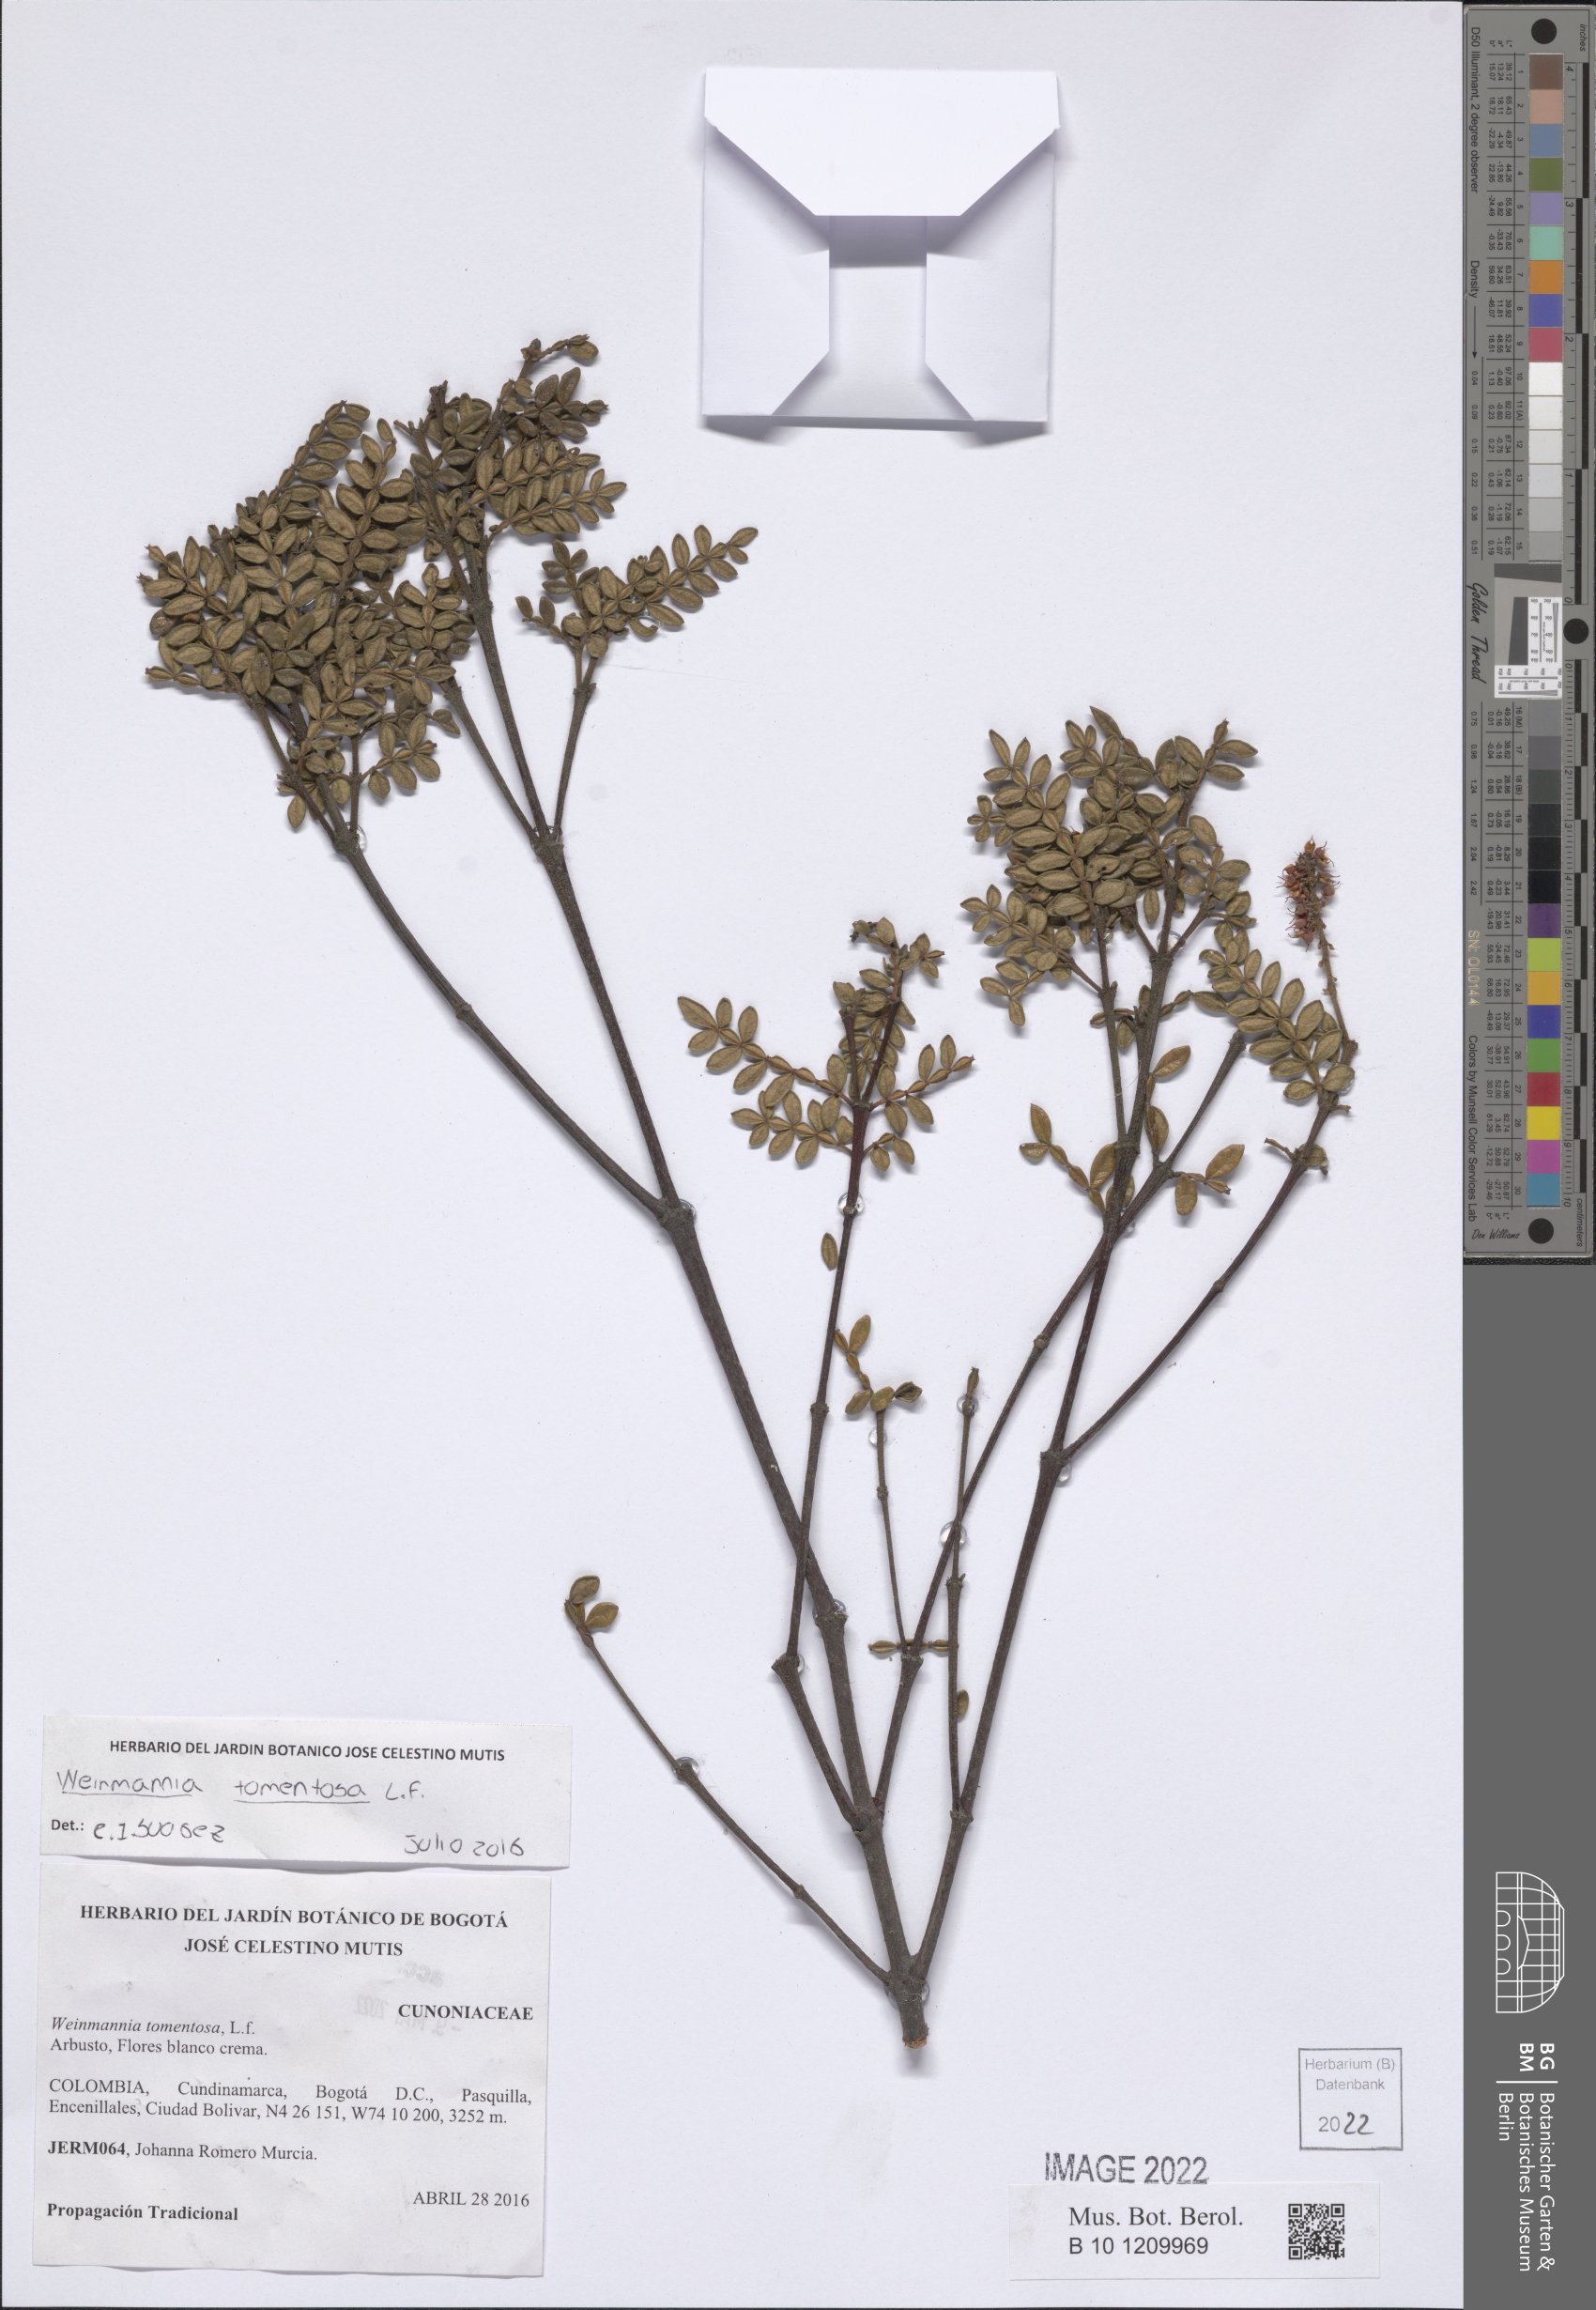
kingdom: Plantae
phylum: Tracheophyta
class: Magnoliopsida
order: Oxalidales
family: Cunoniaceae
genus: Weinmannia
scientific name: Weinmannia tomentosa
